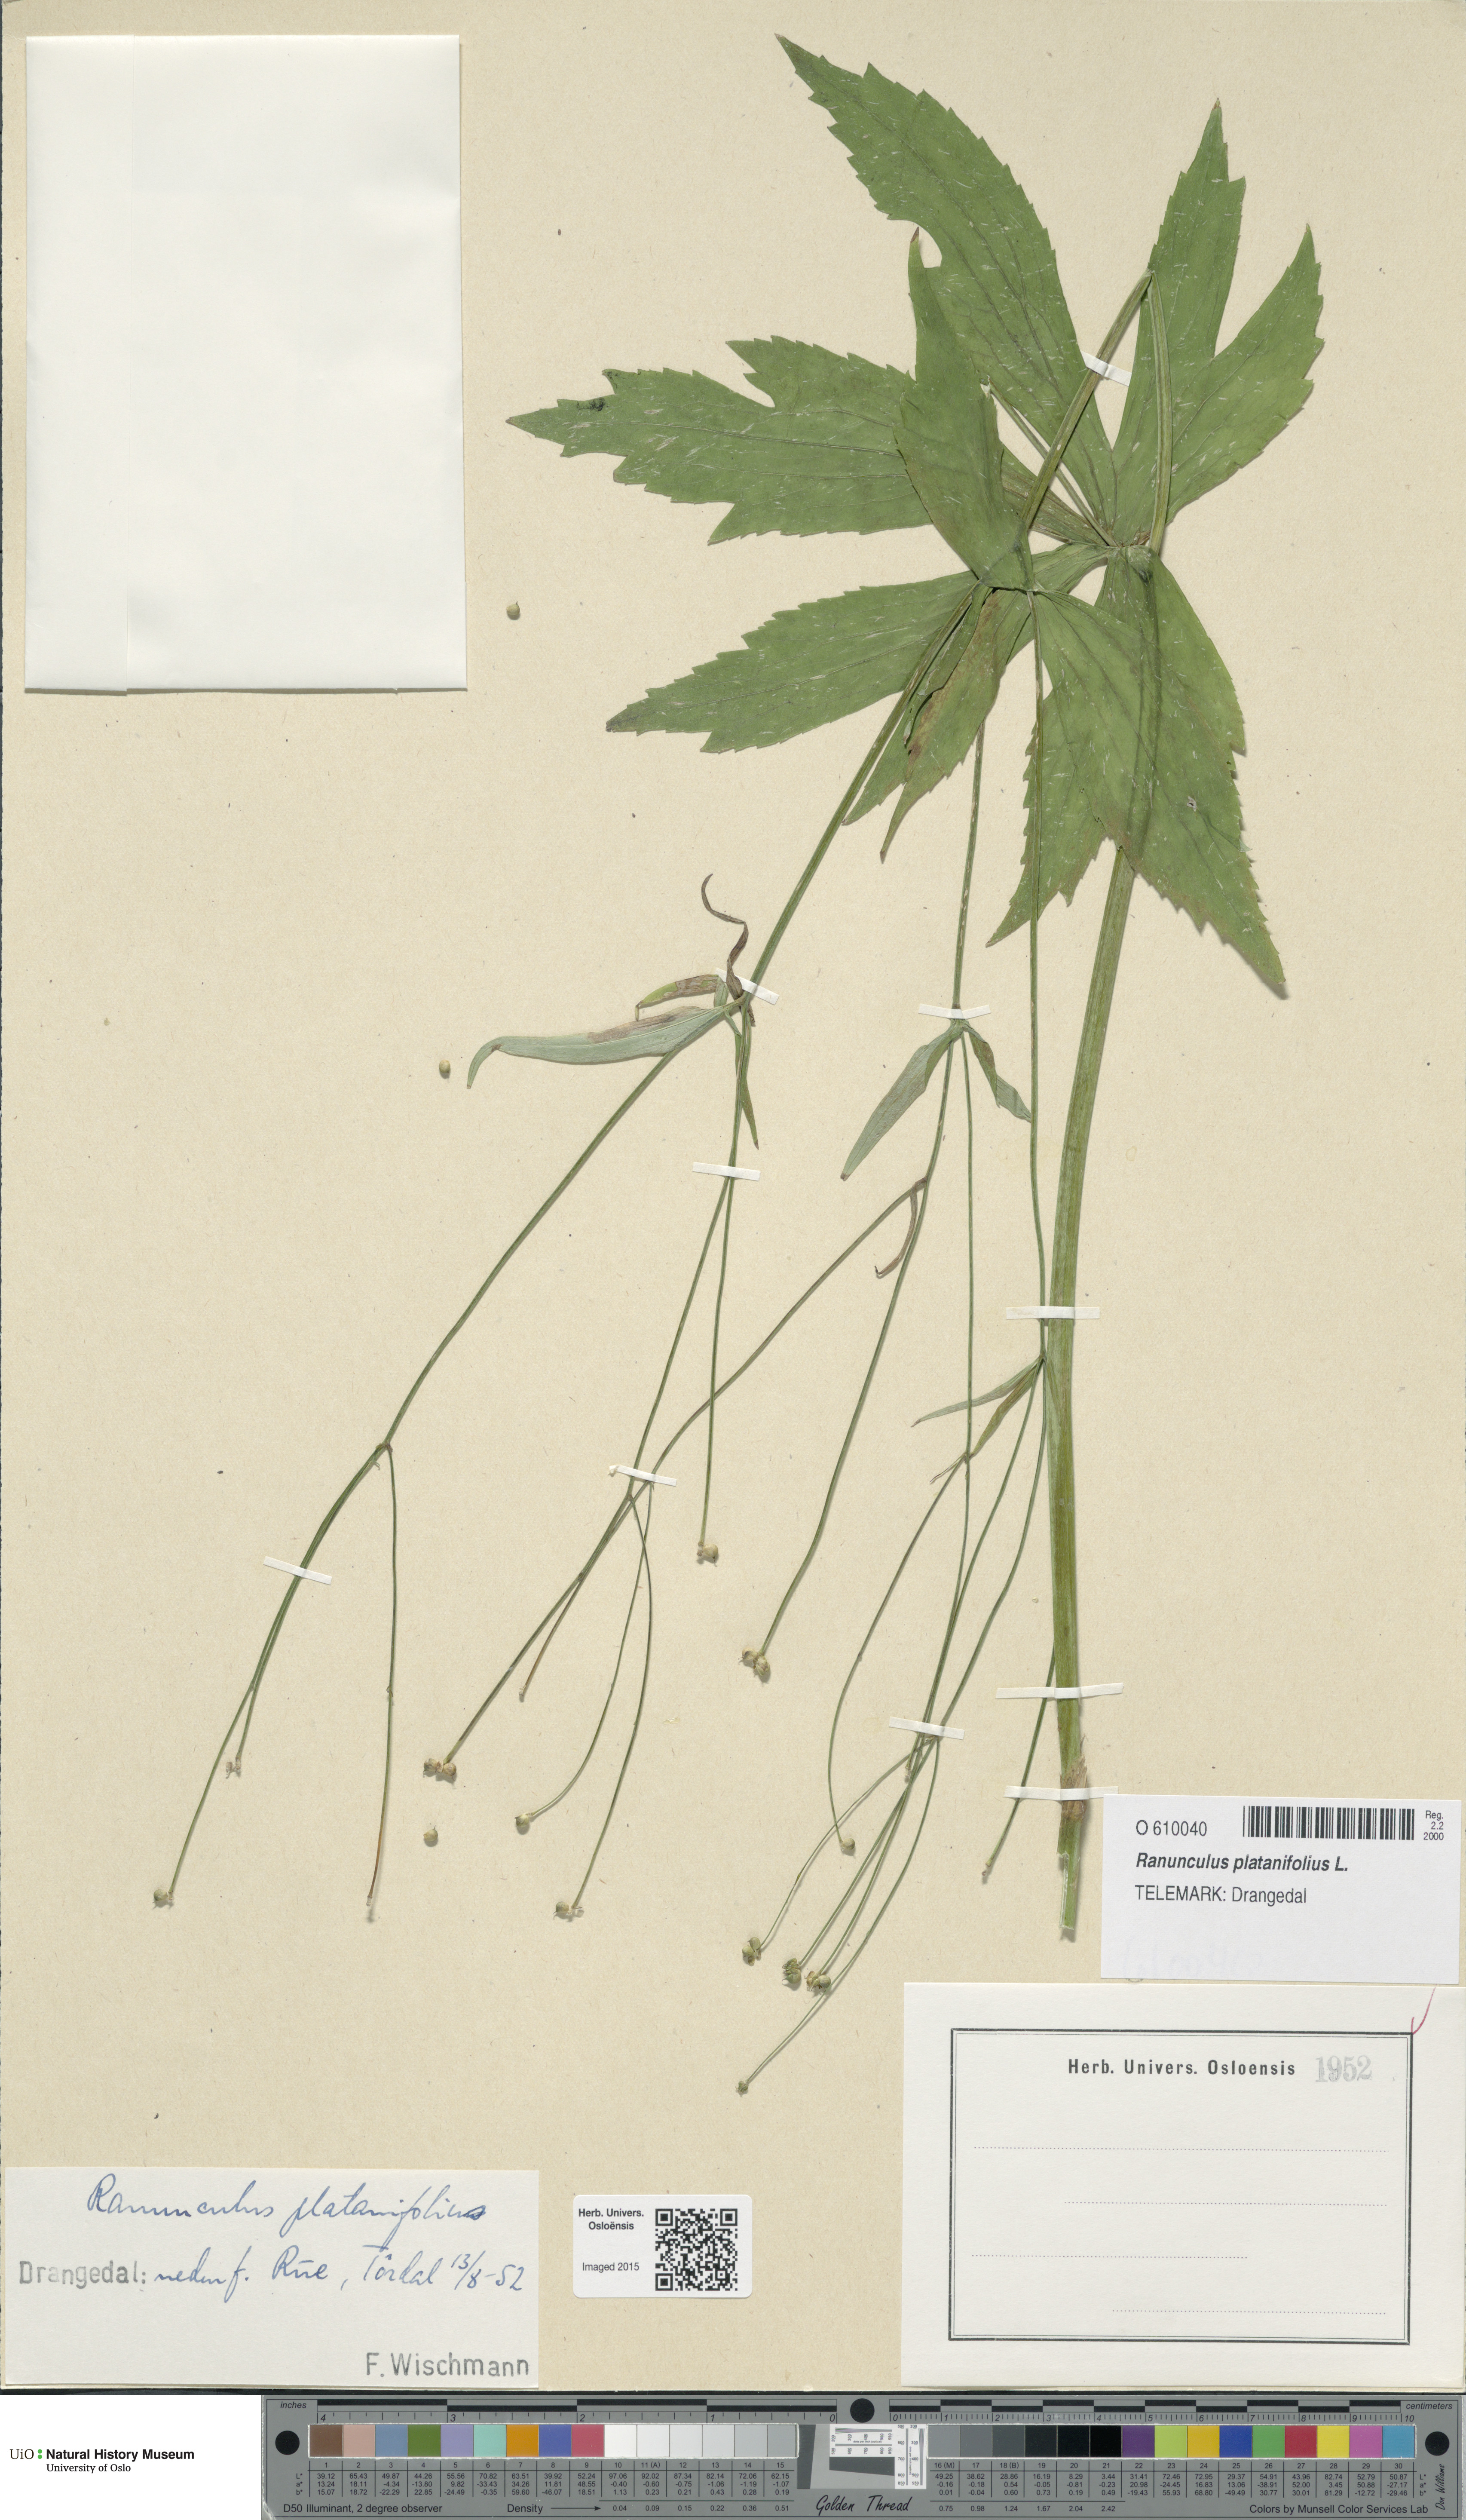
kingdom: Plantae
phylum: Tracheophyta
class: Magnoliopsida
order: Ranunculales
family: Ranunculaceae
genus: Ranunculus
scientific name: Ranunculus platanifolius
